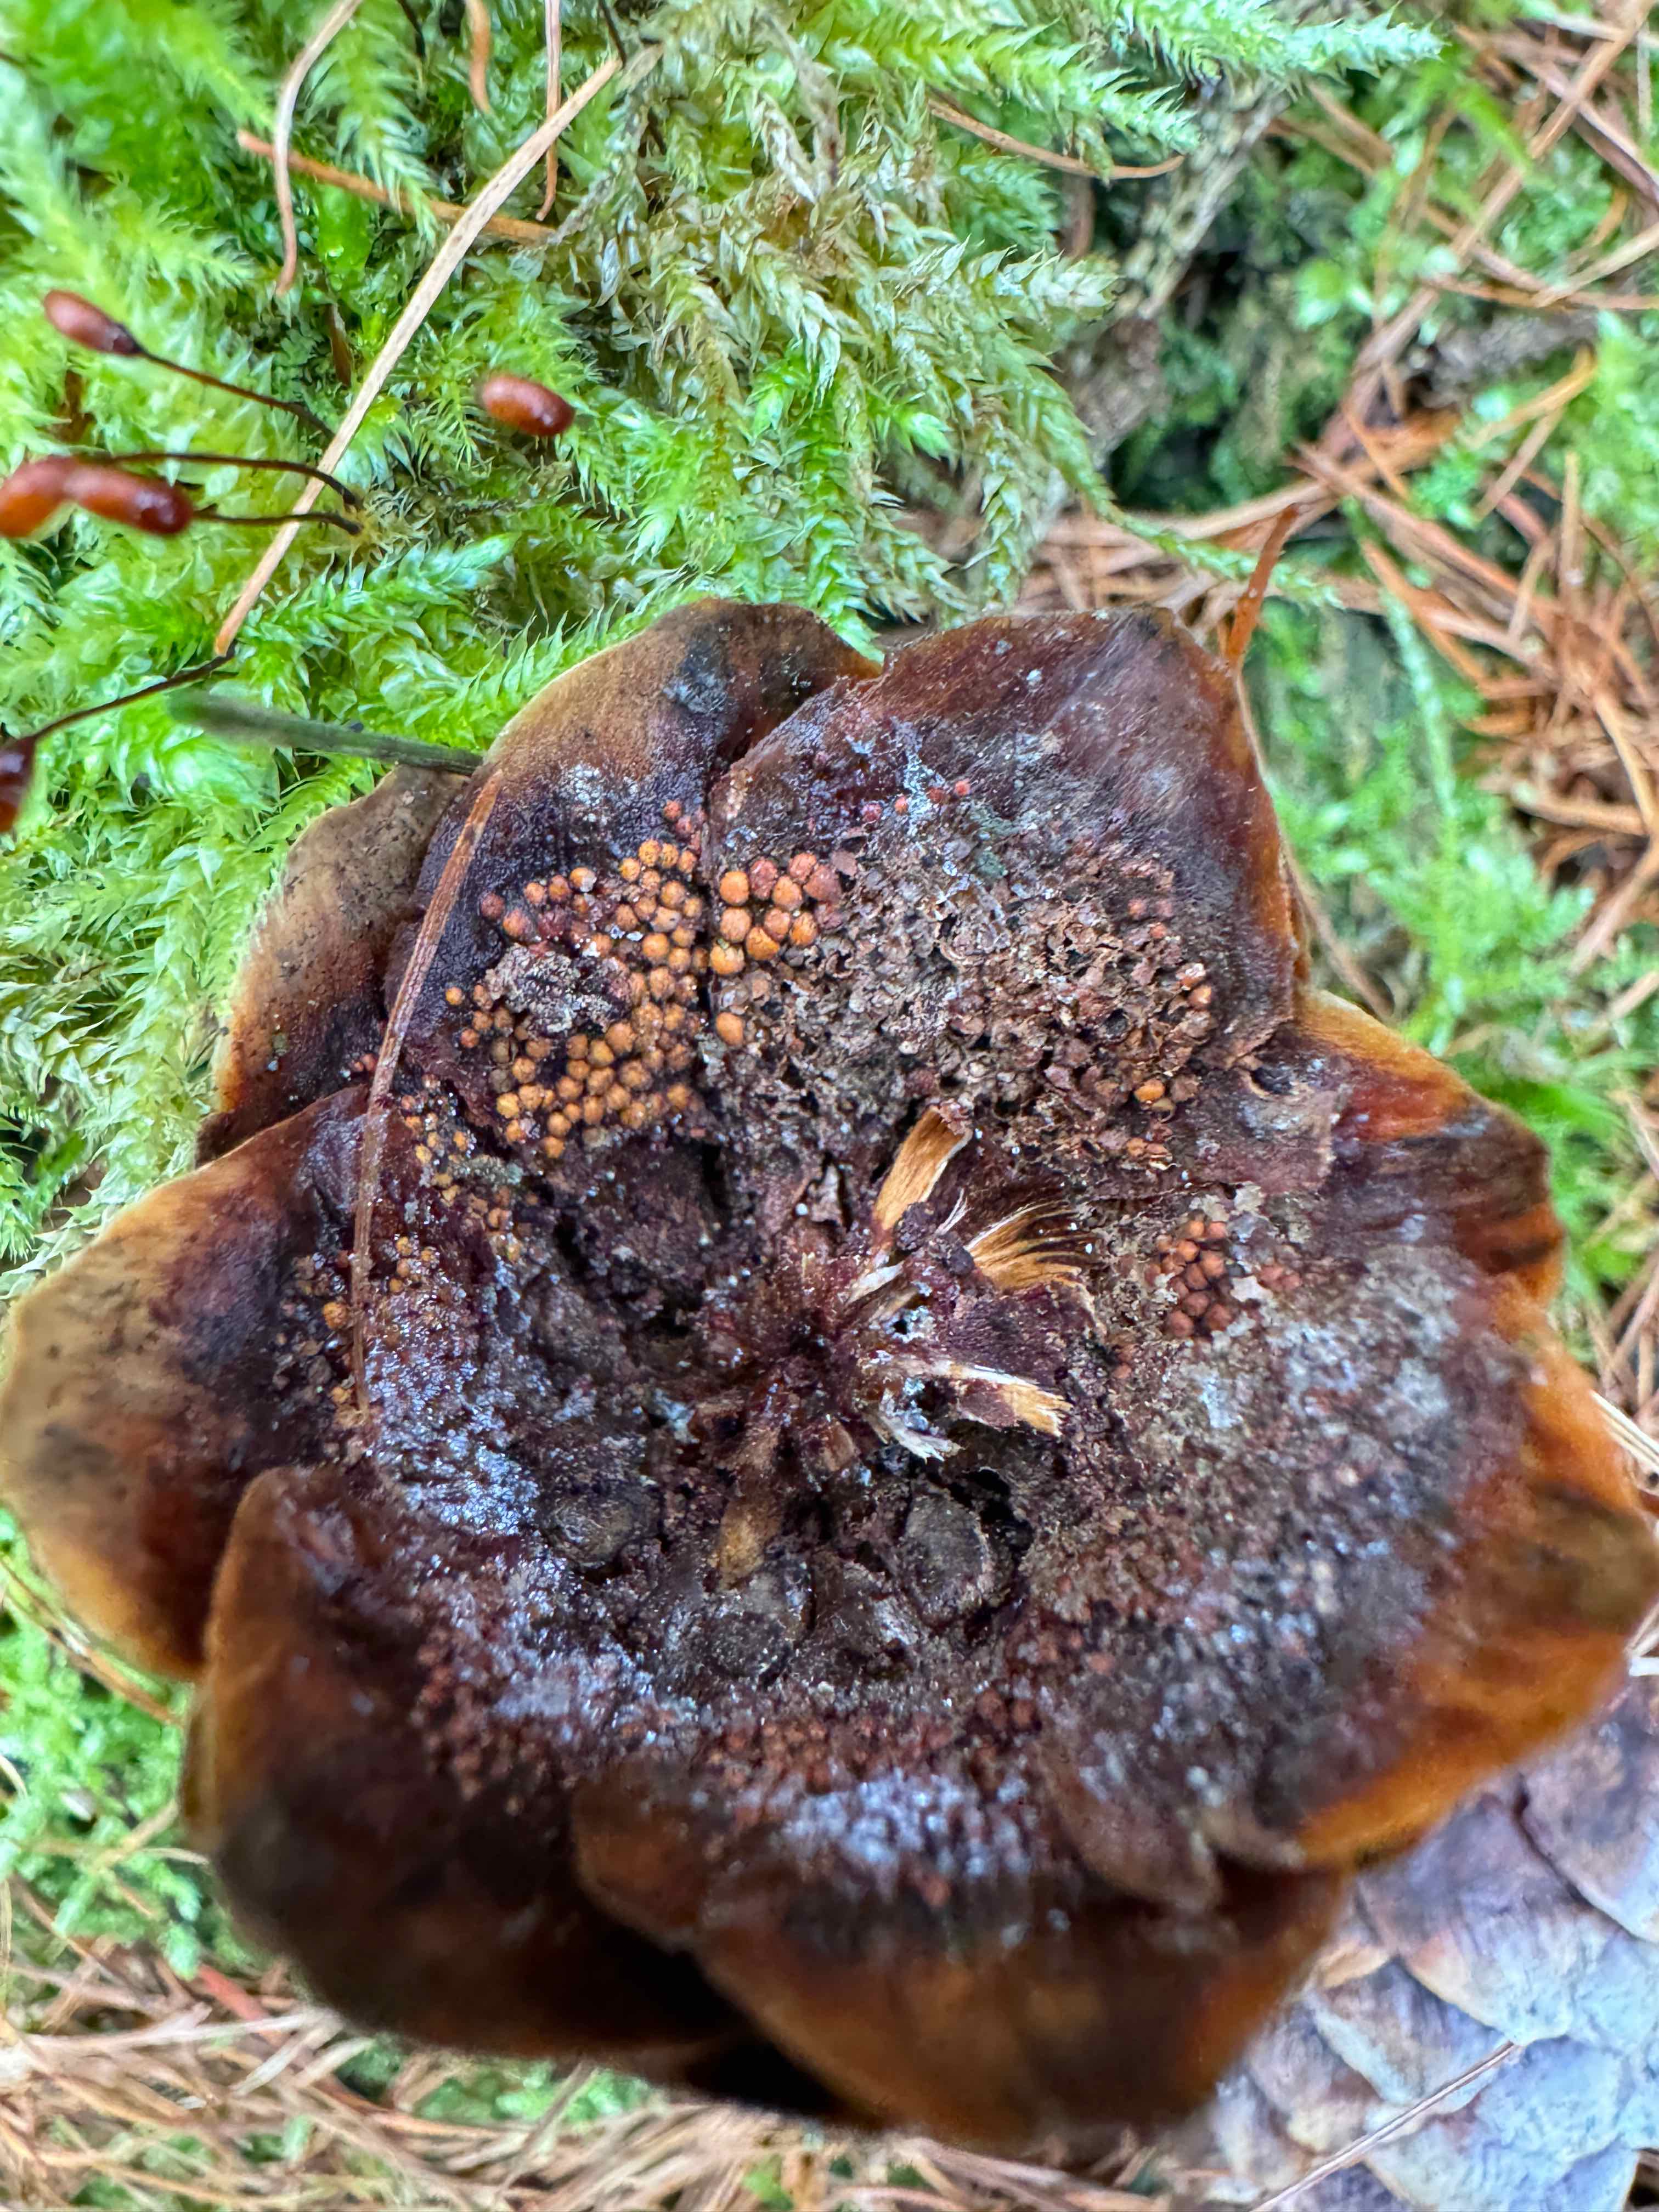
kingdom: Fungi
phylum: Basidiomycota
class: Pucciniomycetes
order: Pucciniales
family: Pucciniastraceae
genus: Thekopsora
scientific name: Thekopsora areolata
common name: grankogle-nålerust
